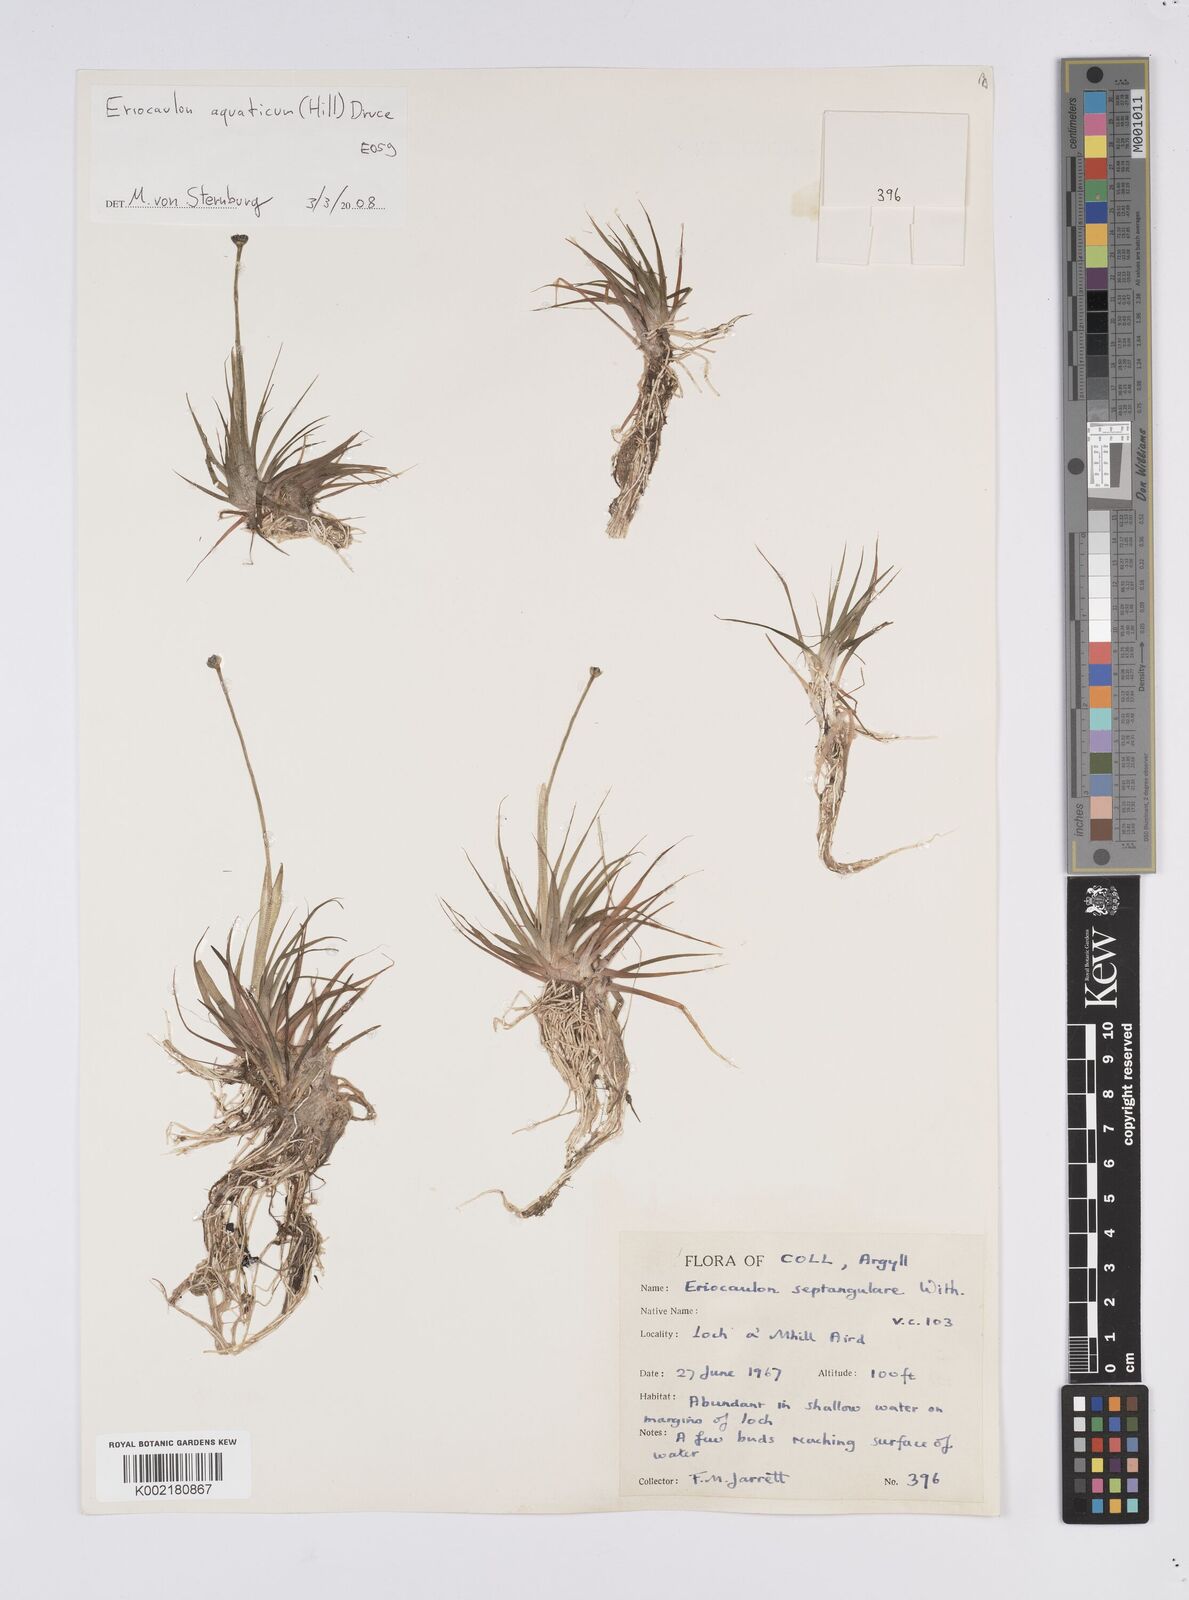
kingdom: Plantae
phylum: Tracheophyta
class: Liliopsida
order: Poales
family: Eriocaulaceae
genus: Eriocaulon
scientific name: Eriocaulon aquaticum
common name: Pipewort
